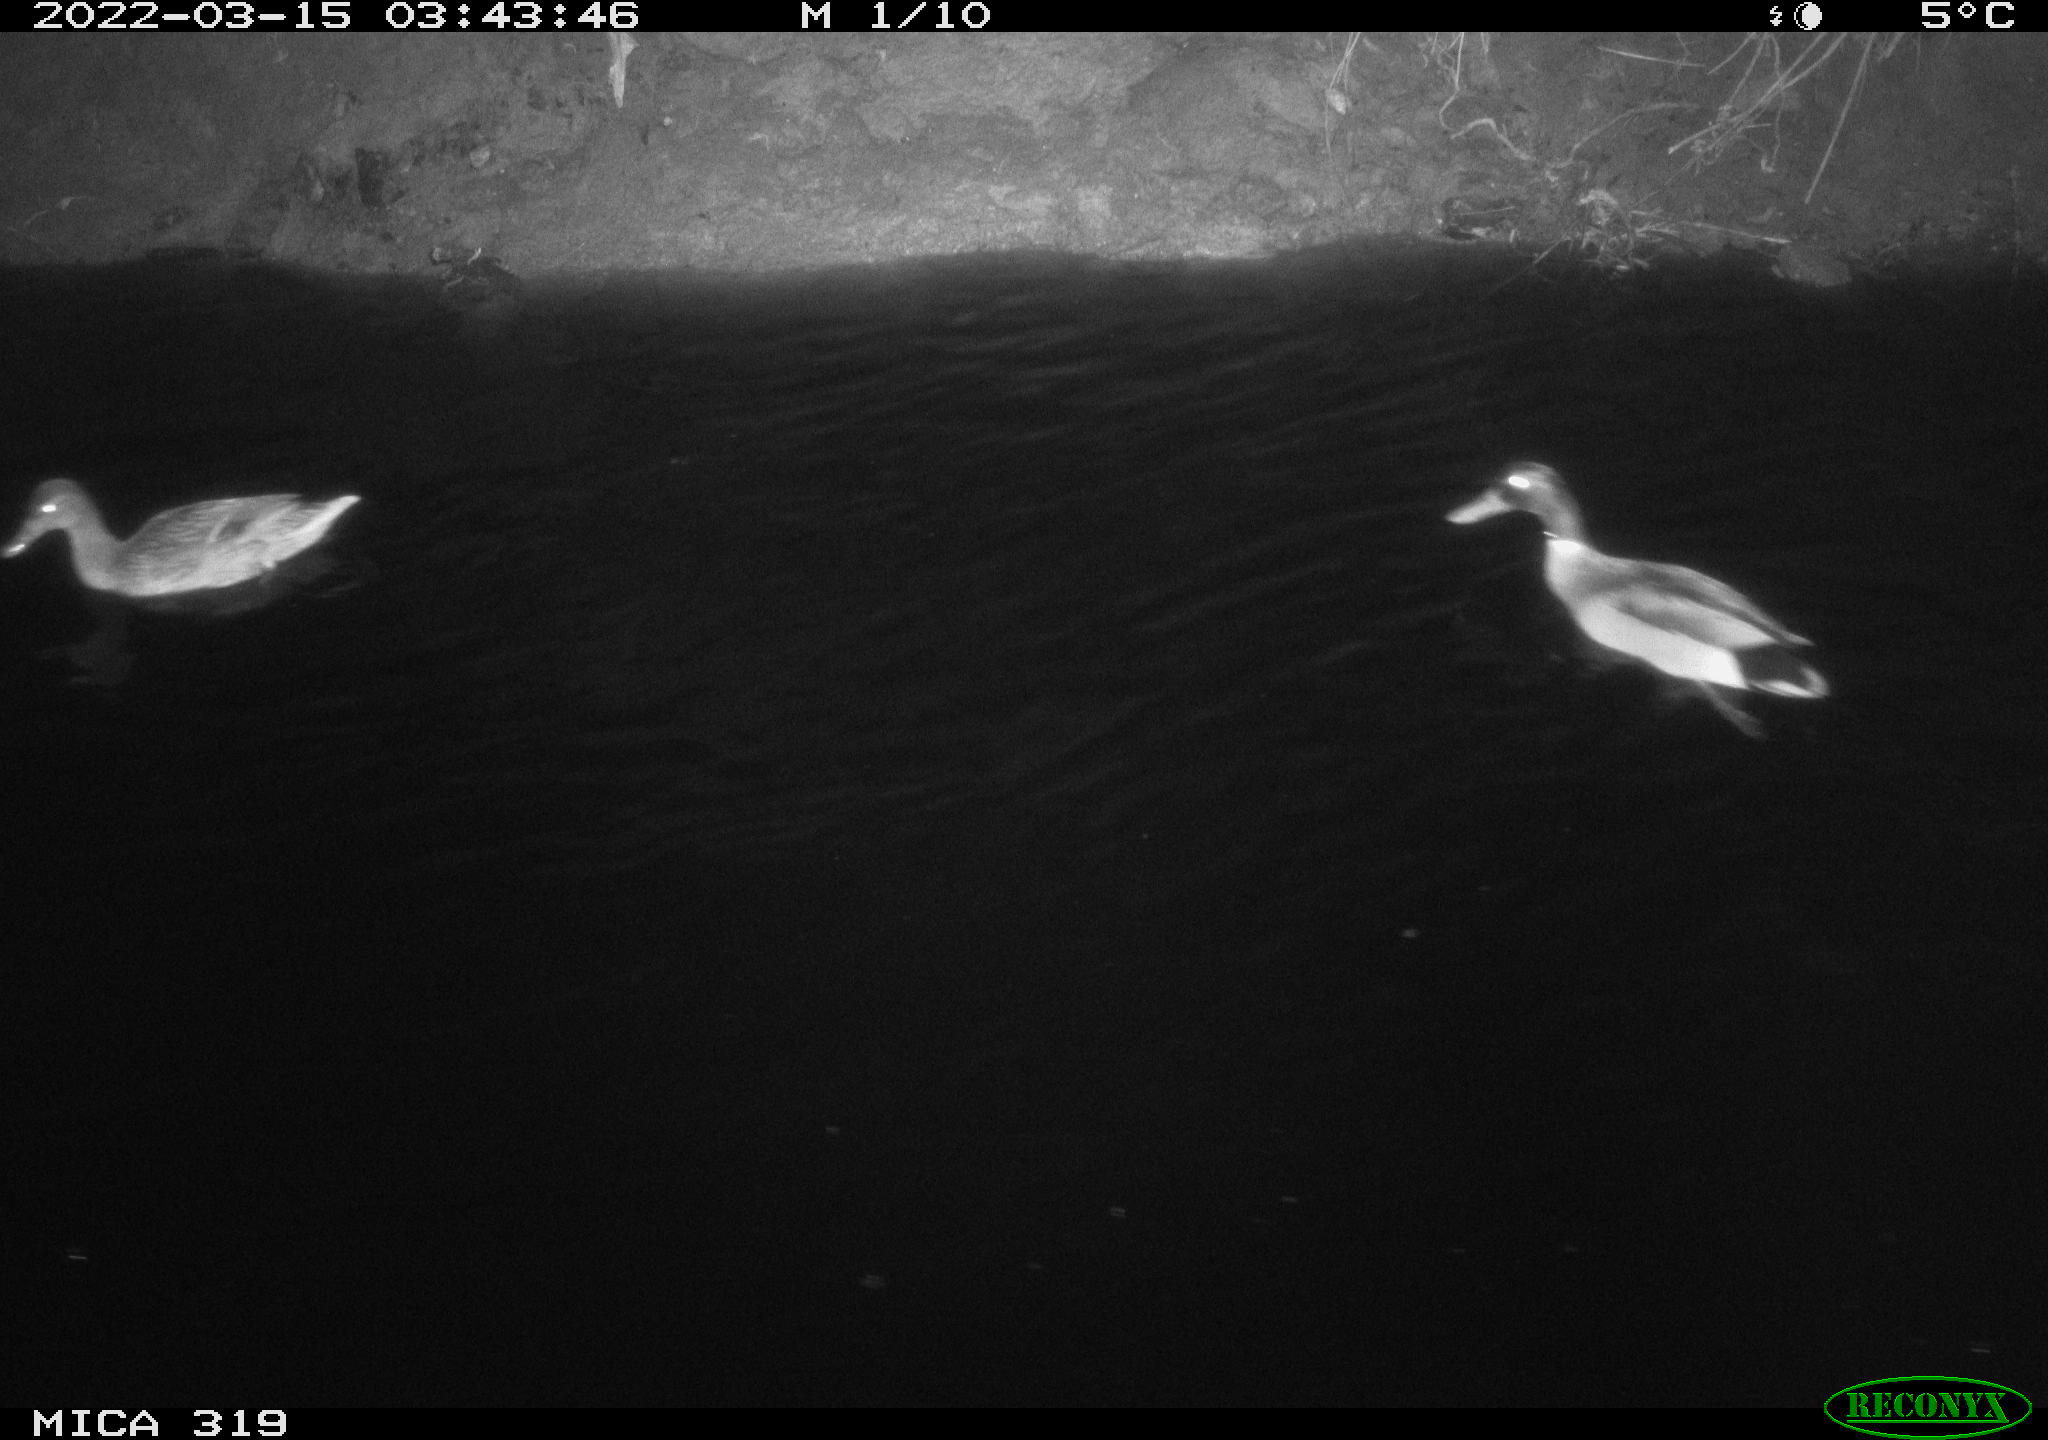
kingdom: Animalia
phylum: Chordata
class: Aves
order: Anseriformes
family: Anatidae
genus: Anas
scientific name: Anas platyrhynchos
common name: Mallard
